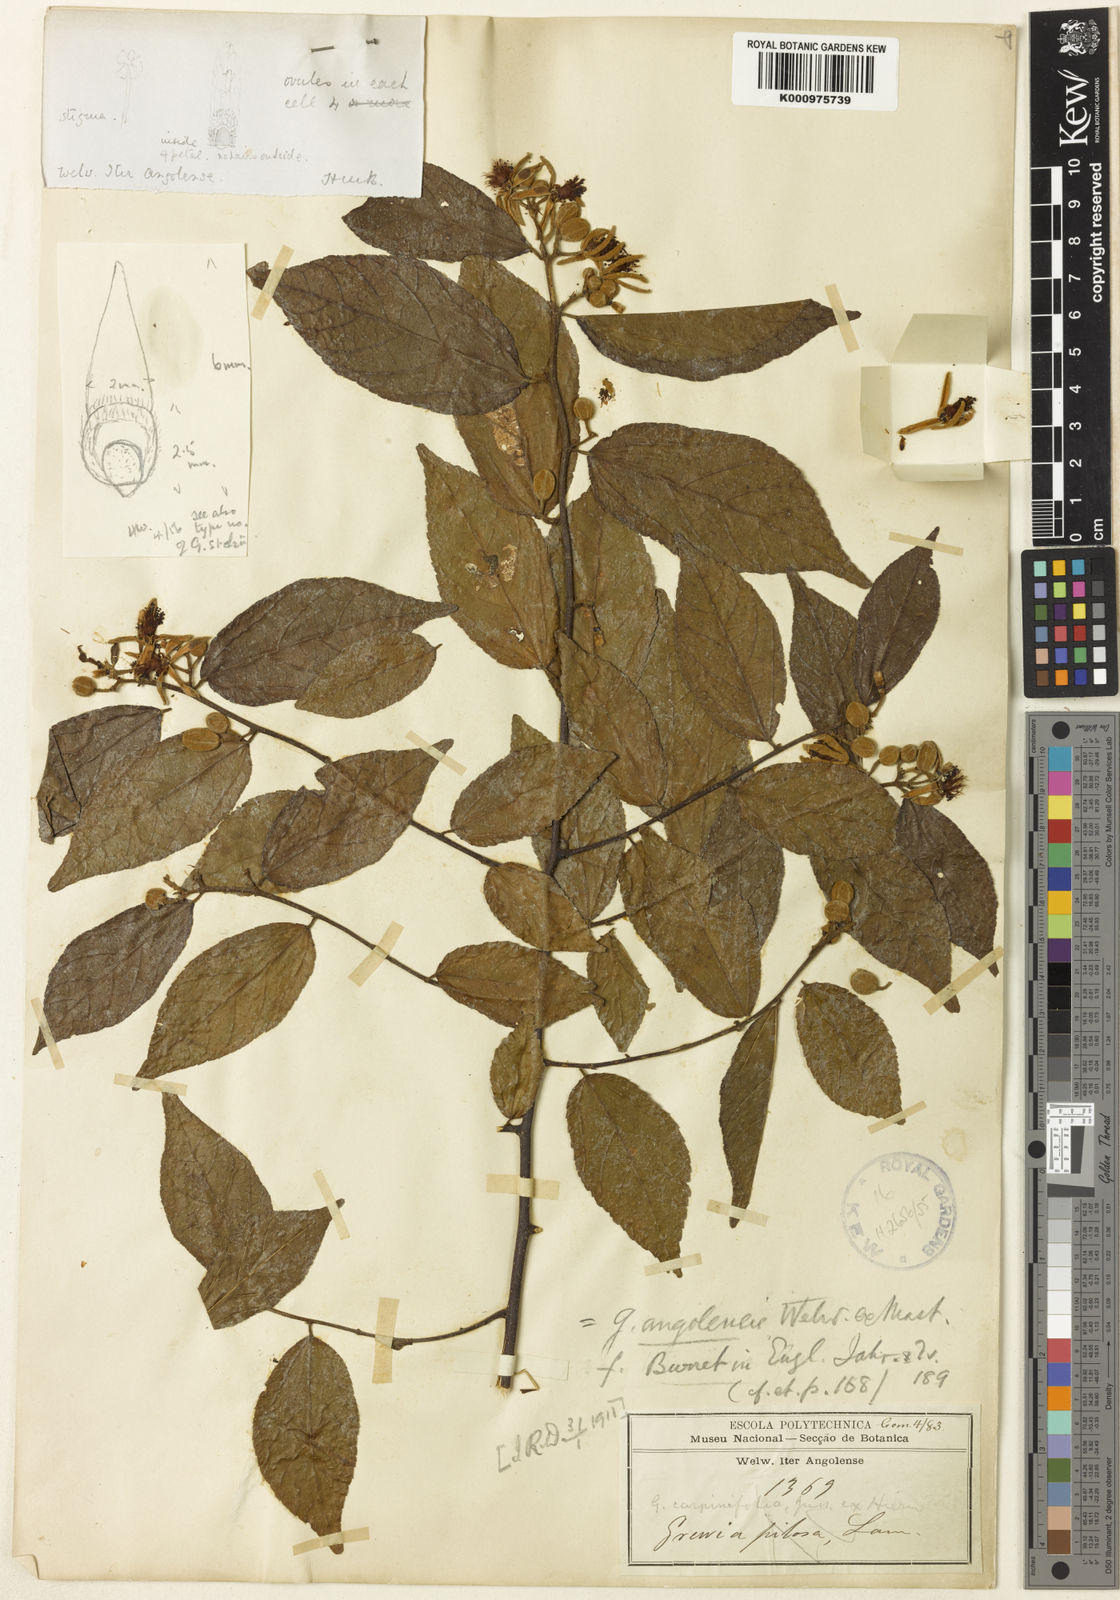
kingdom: Plantae
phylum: Tracheophyta
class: Magnoliopsida
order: Malvales
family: Malvaceae
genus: Grewia
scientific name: Grewia angolensis
